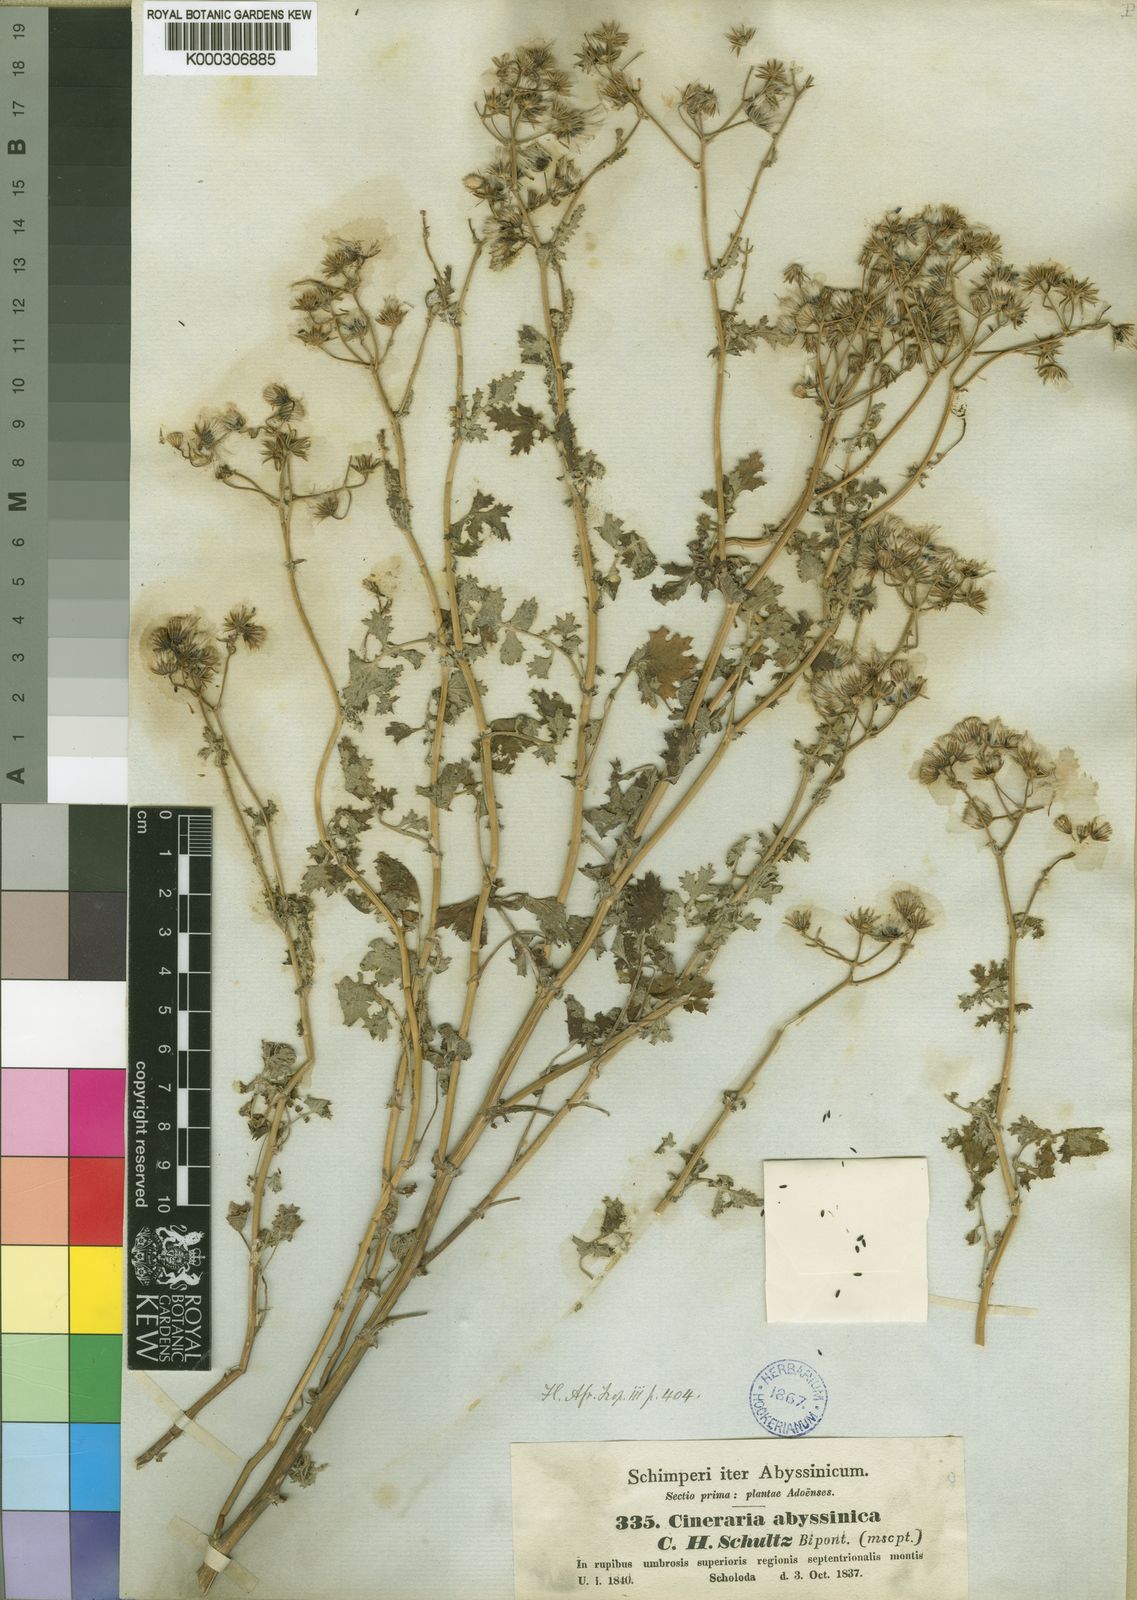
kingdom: Plantae
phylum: Tracheophyta
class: Magnoliopsida
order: Asterales
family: Asteraceae
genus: Cineraria
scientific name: Cineraria abyssinica
